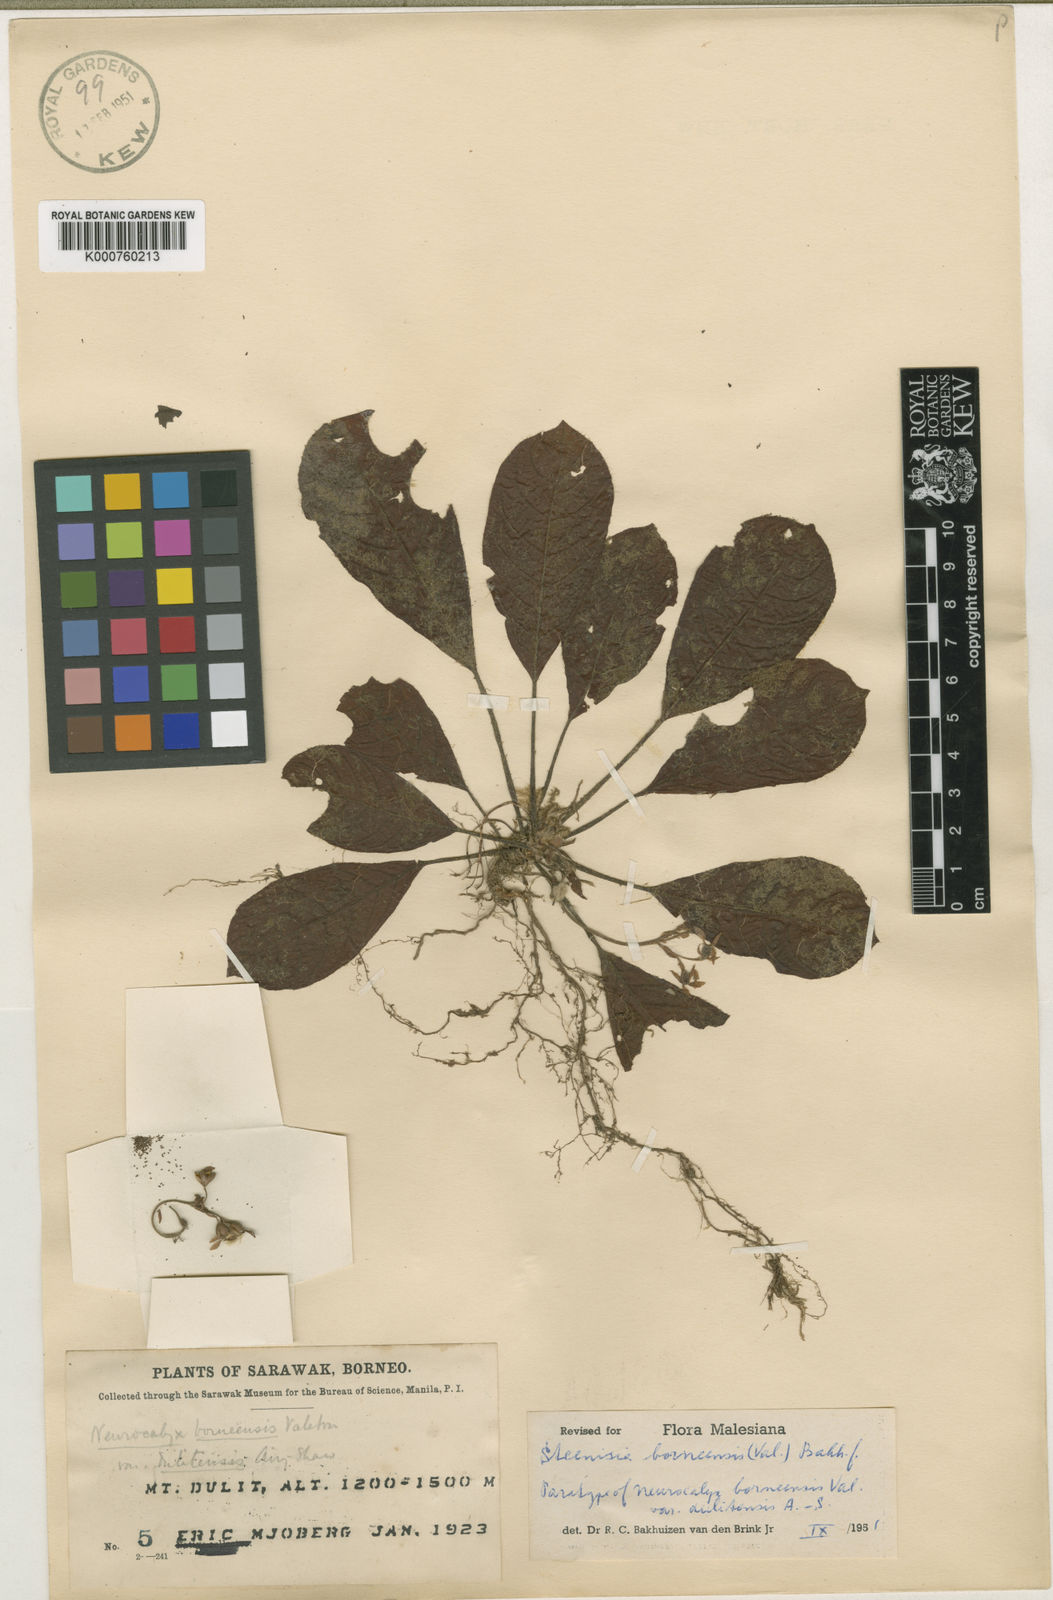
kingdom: Plantae
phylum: Tracheophyta
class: Magnoliopsida
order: Gentianales
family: Rubiaceae
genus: Steenisia
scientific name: Steenisia borneensis
